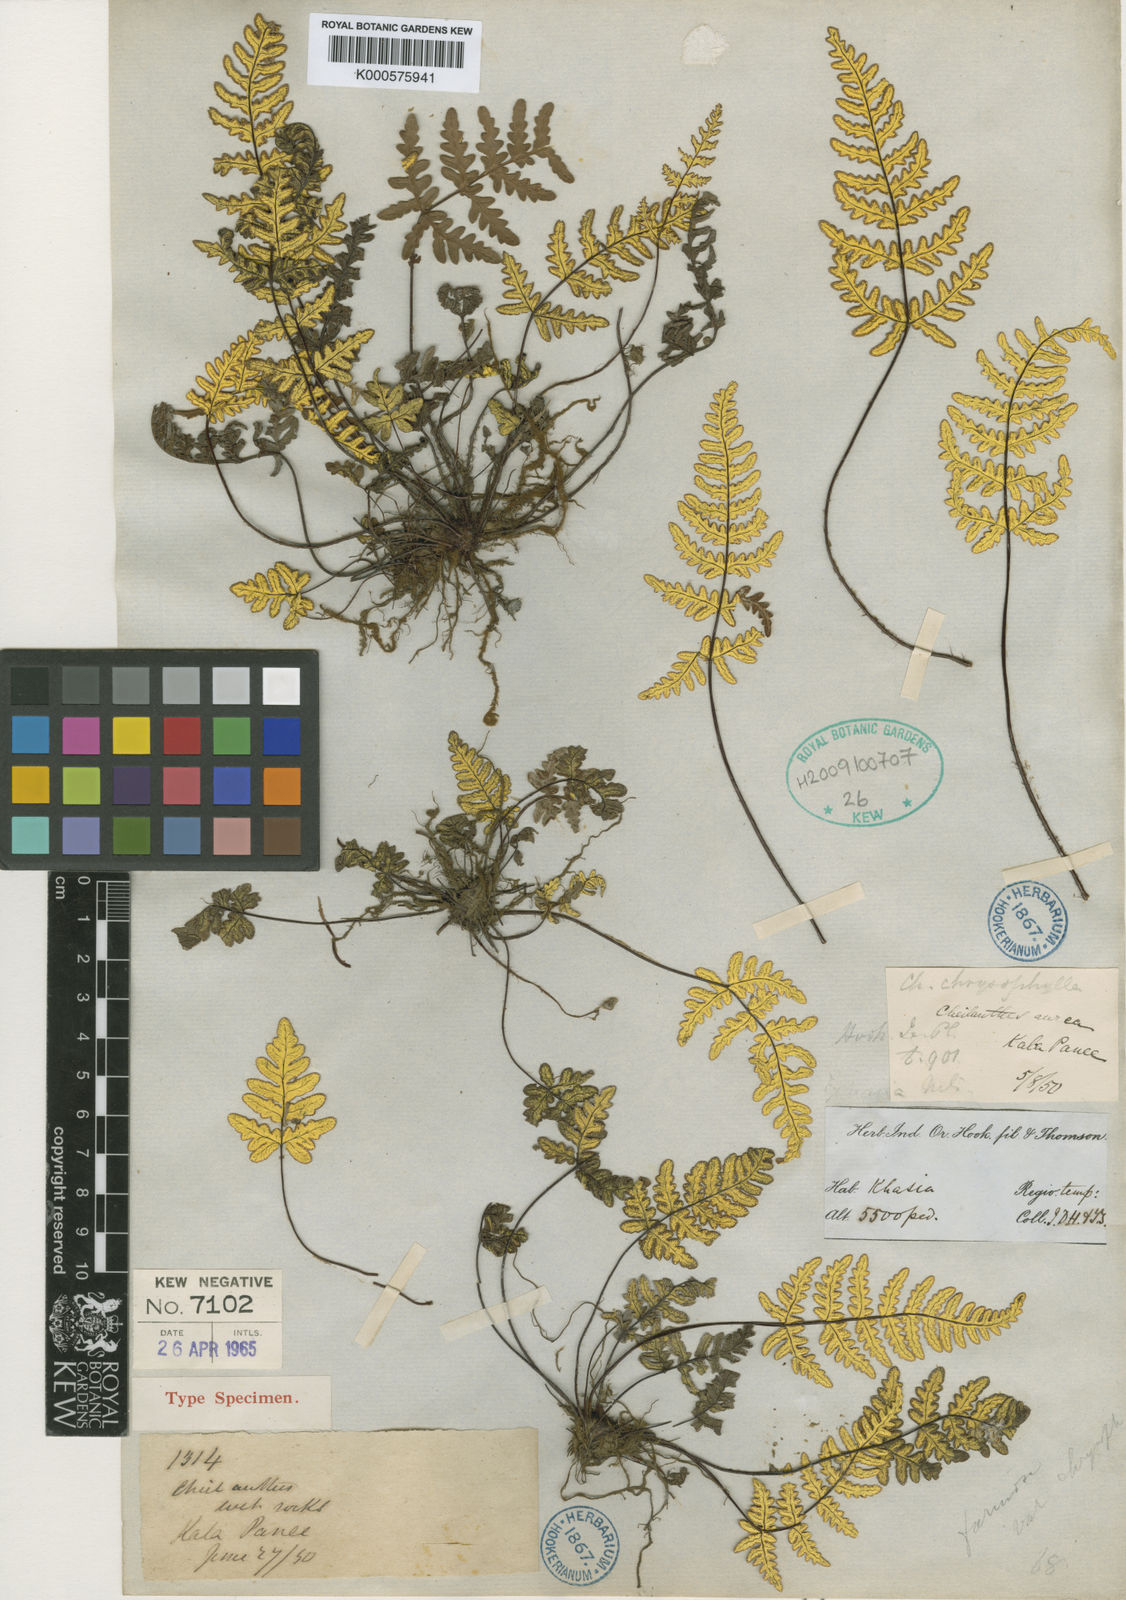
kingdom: Plantae
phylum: Tracheophyta
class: Polypodiopsida
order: Polypodiales
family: Pteridaceae
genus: Aleuritopteris
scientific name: Aleuritopteris chrysophylla
